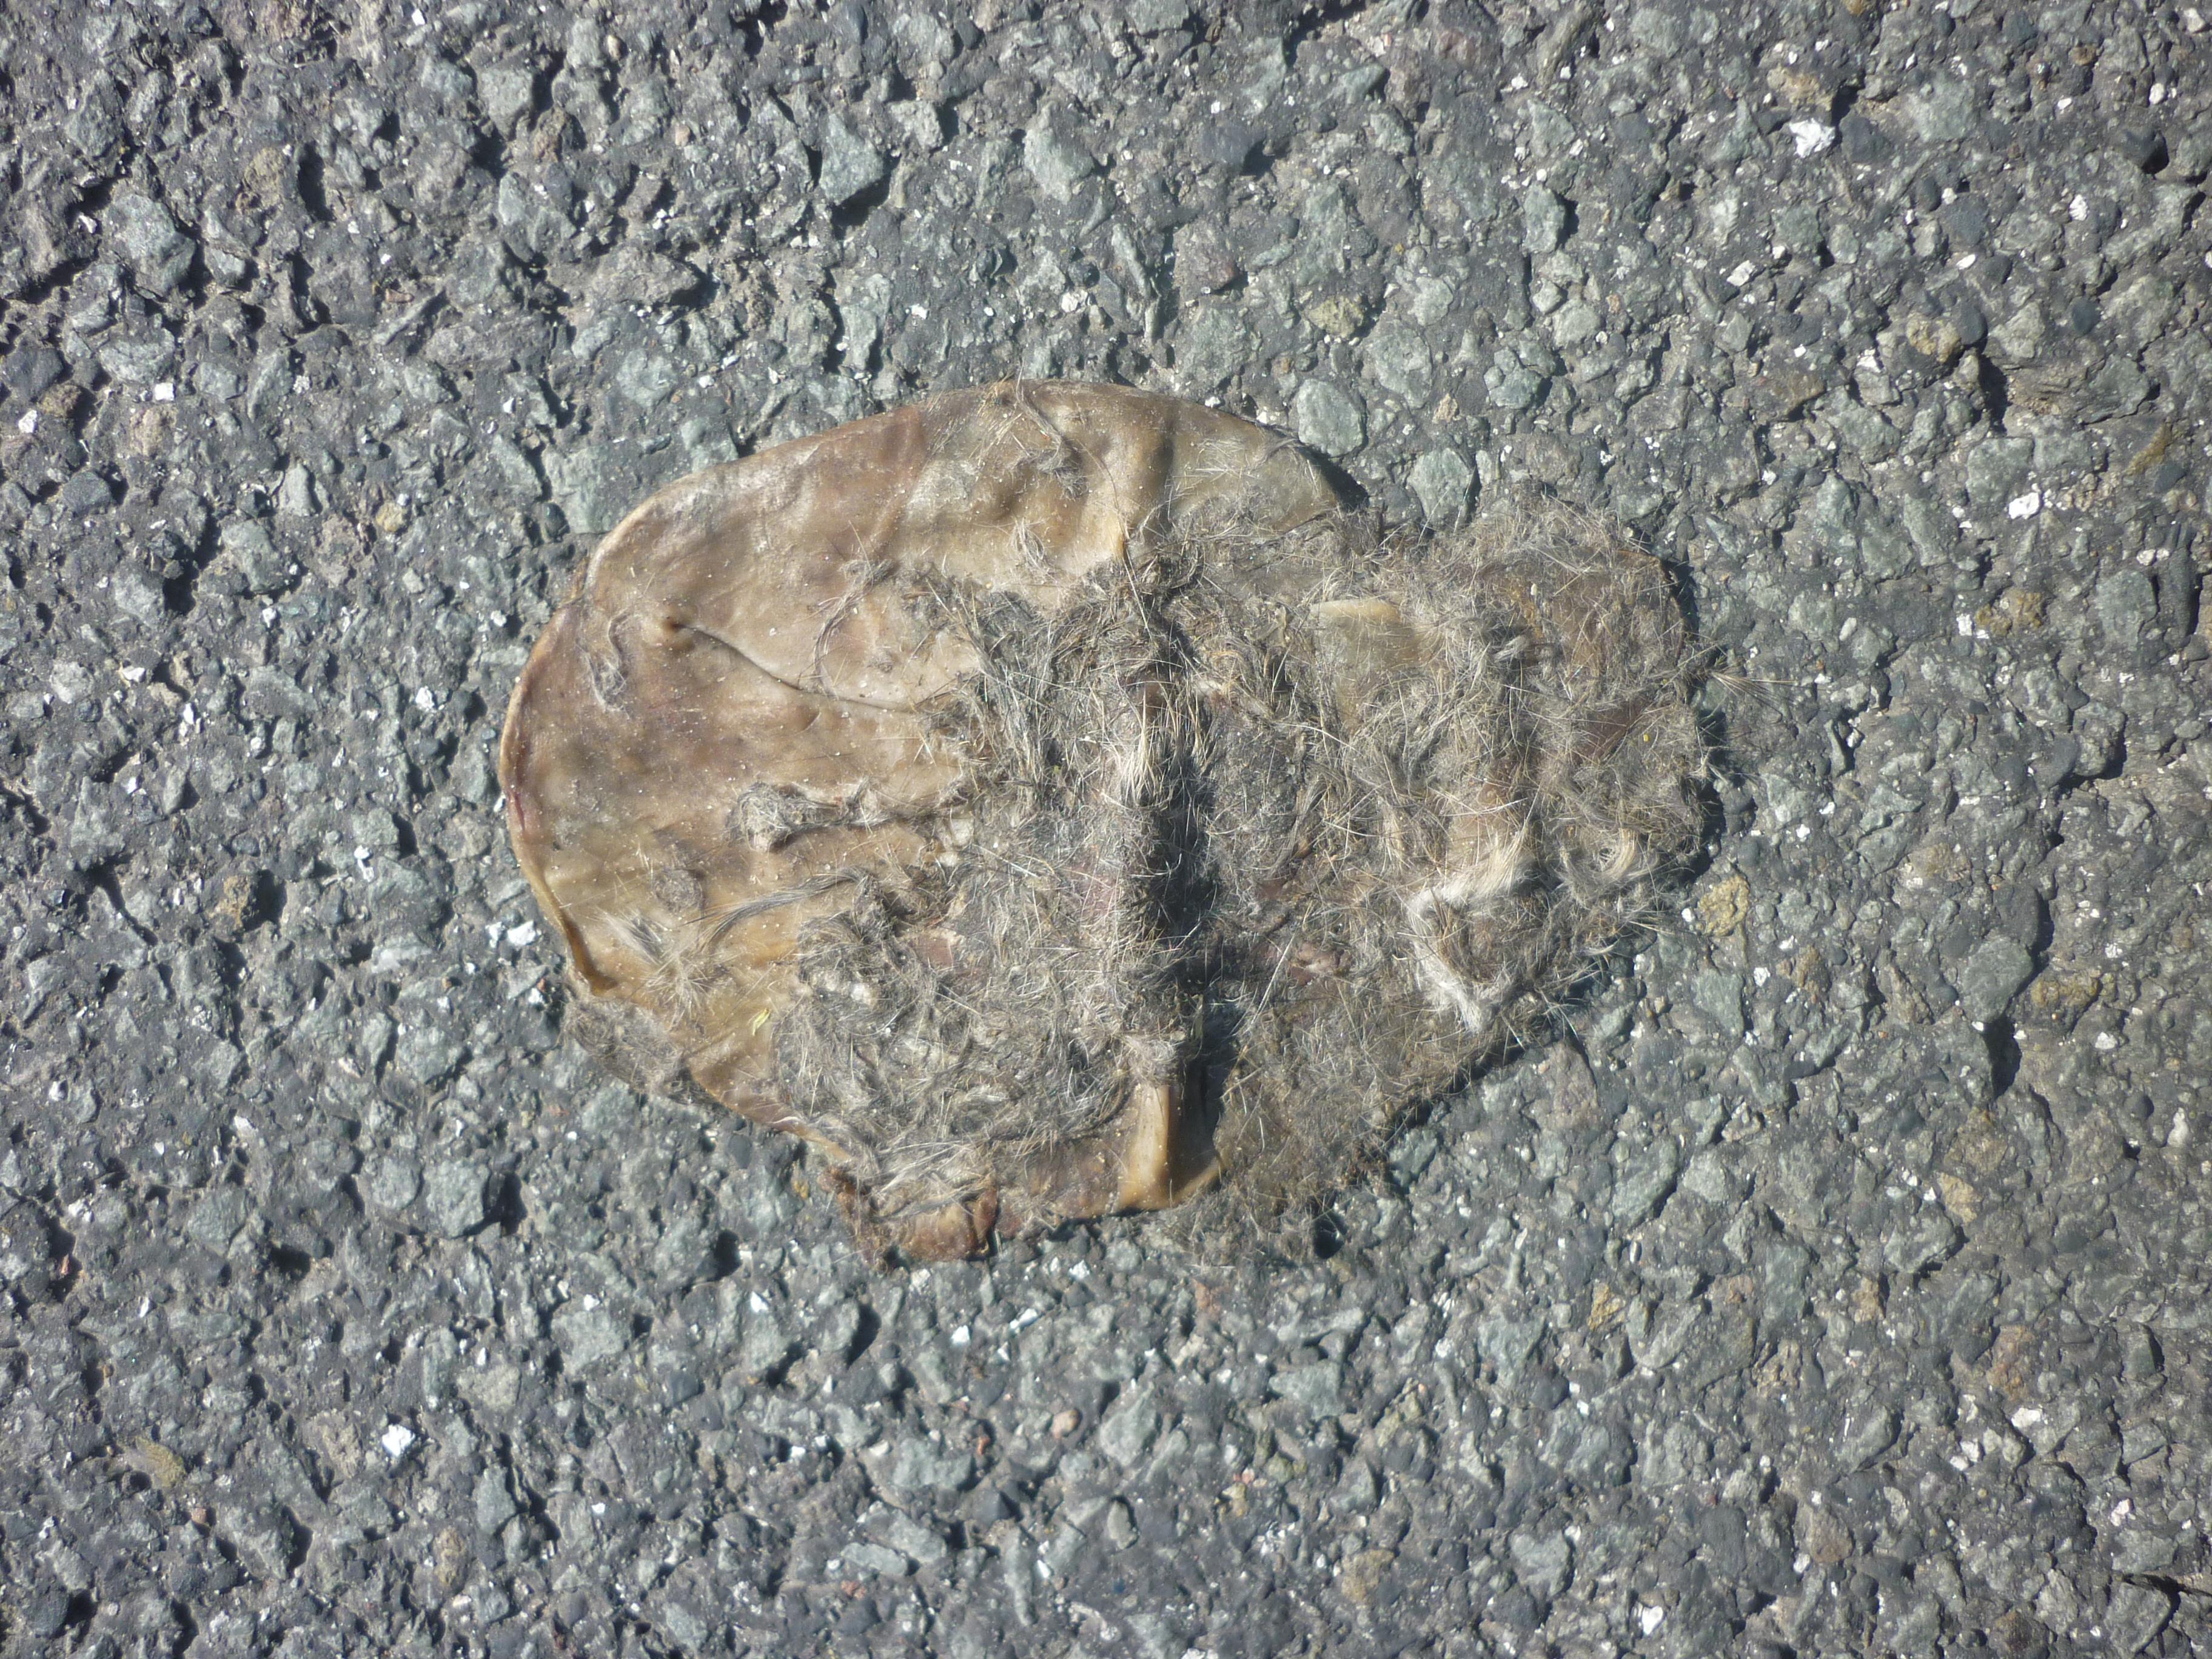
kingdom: Animalia
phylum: Chordata
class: Mammalia
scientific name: Mammalia
